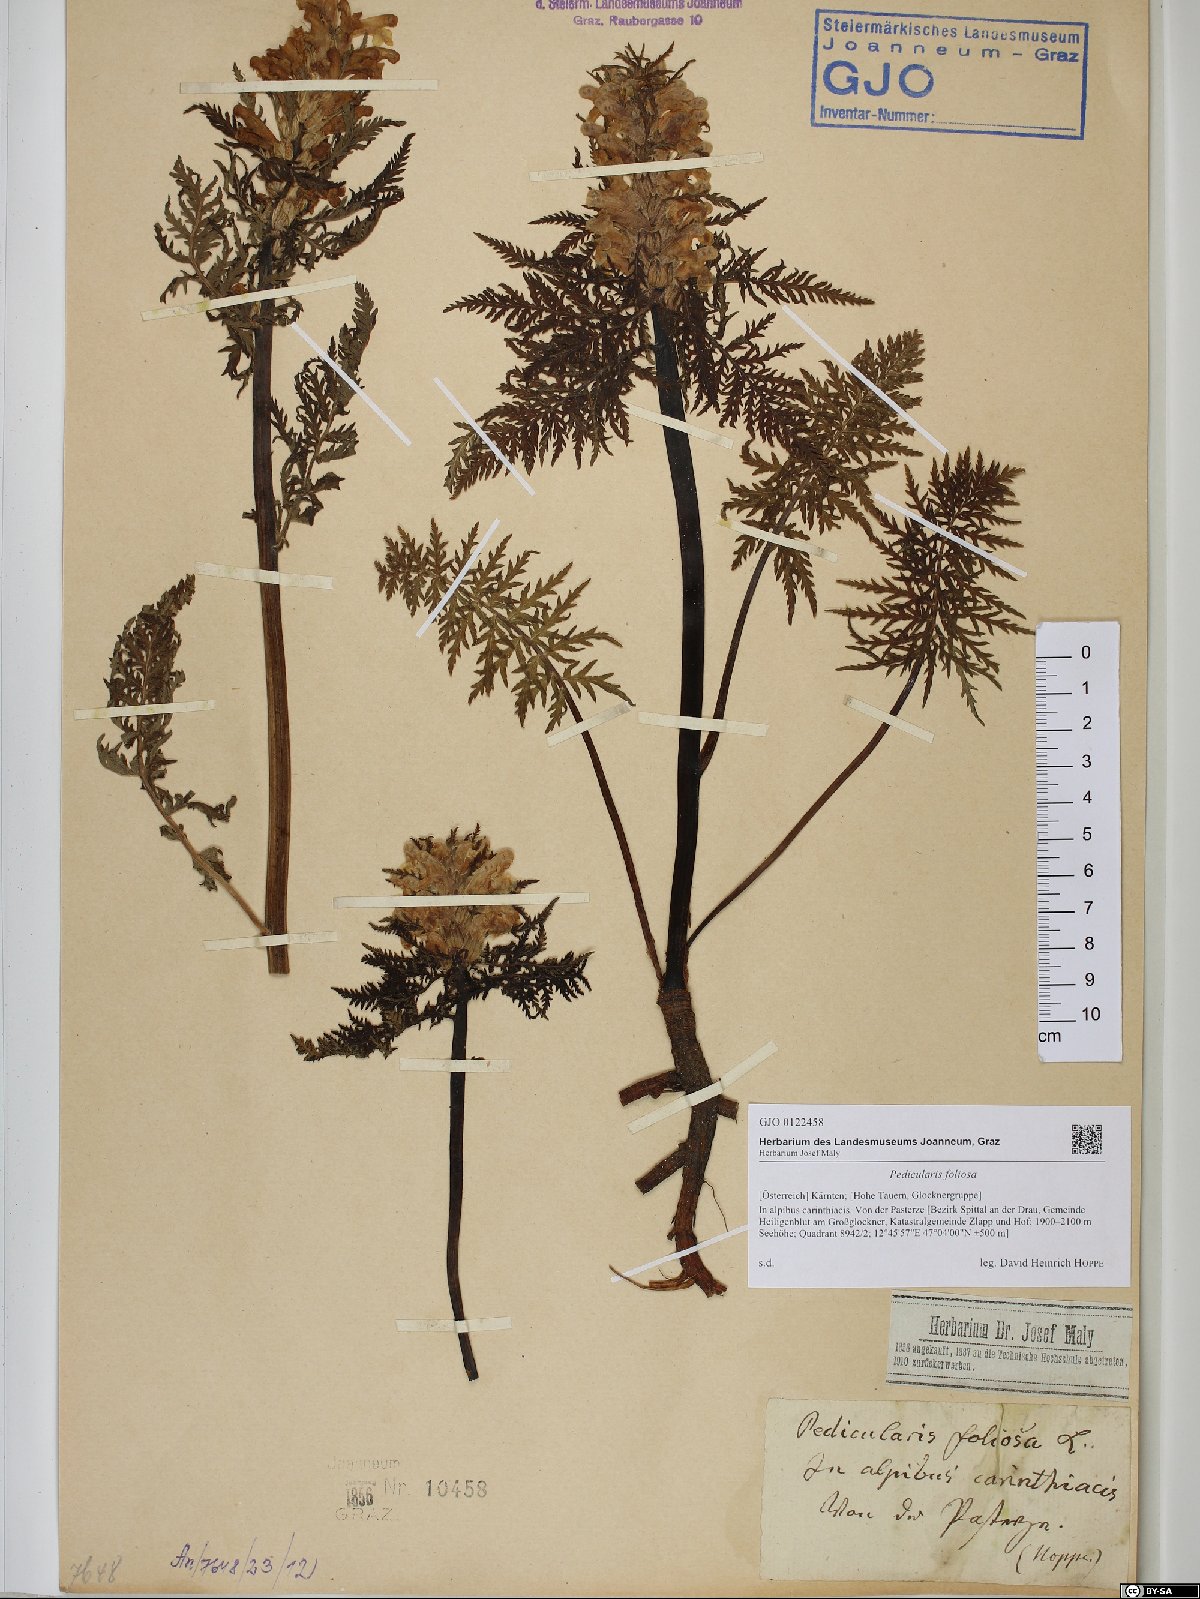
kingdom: Plantae
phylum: Tracheophyta
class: Magnoliopsida
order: Lamiales
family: Orobanchaceae
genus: Pedicularis
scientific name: Pedicularis foliosa
